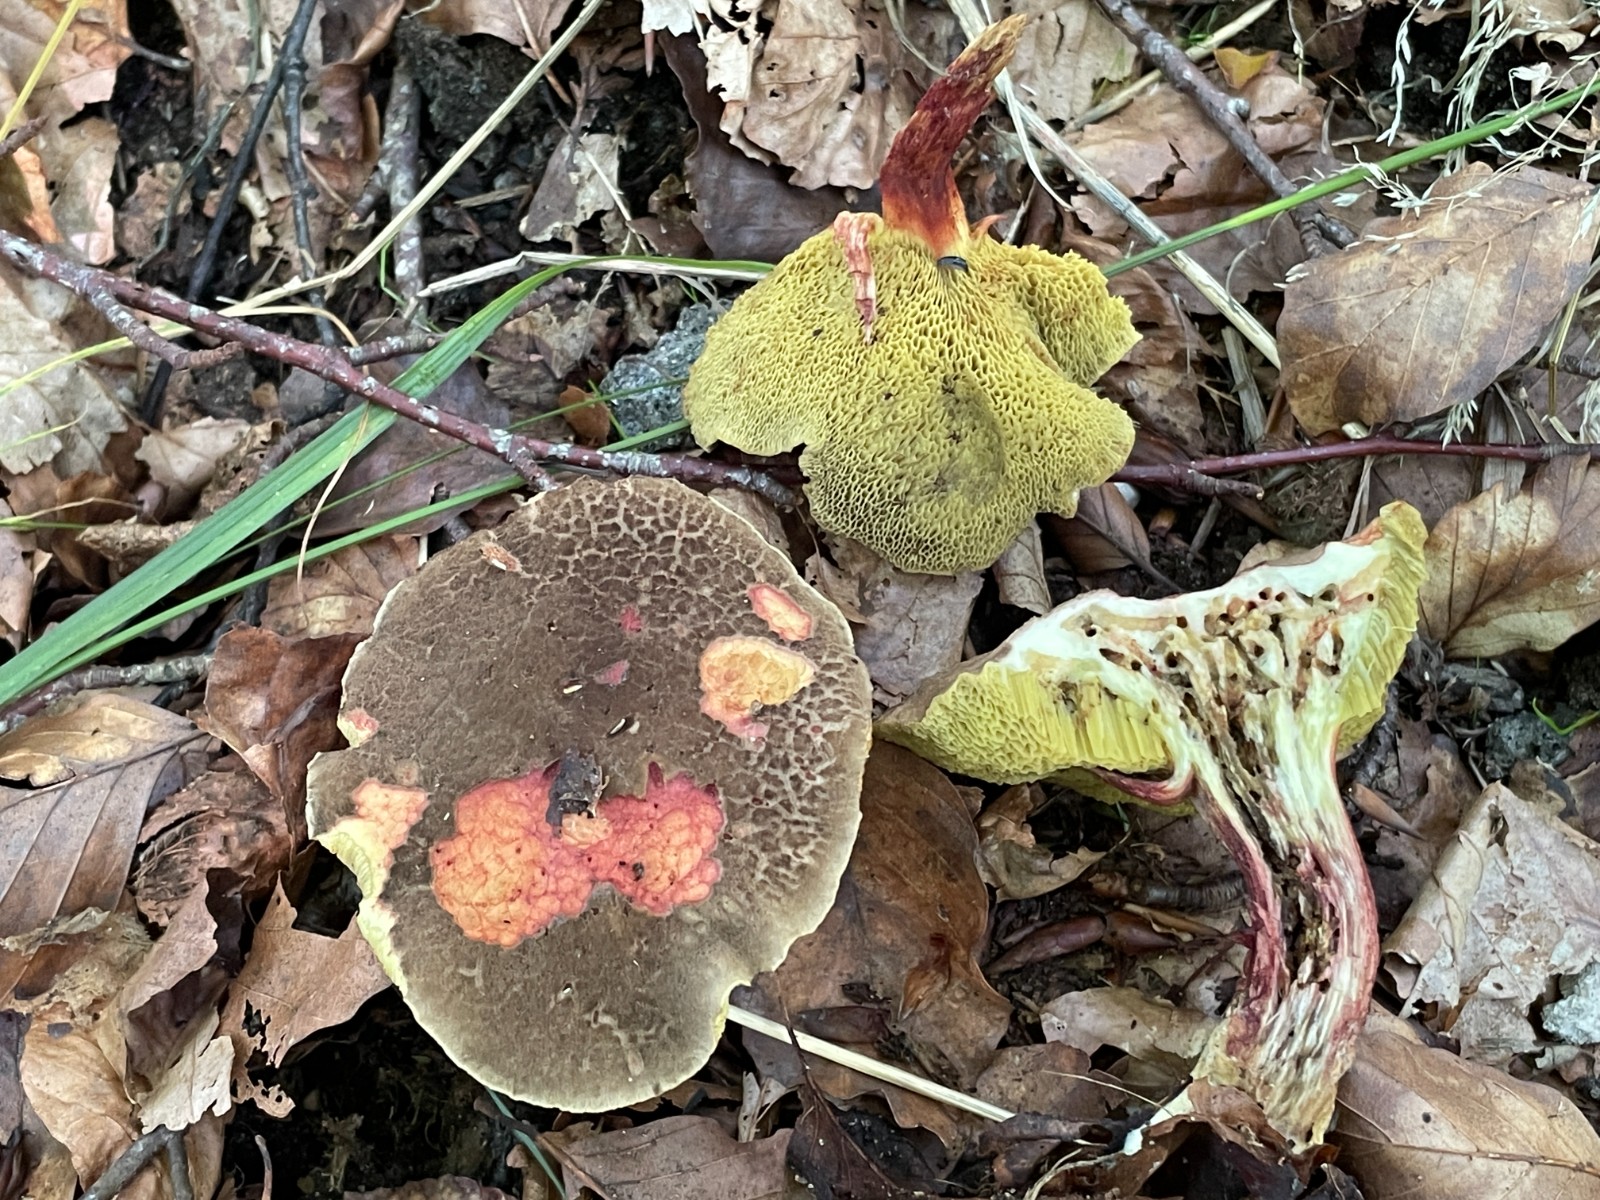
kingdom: Fungi
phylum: Basidiomycota
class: Agaricomycetes
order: Boletales
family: Boletaceae
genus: Xerocomellus
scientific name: Xerocomellus chrysenteron
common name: rødsprukken rørhat
